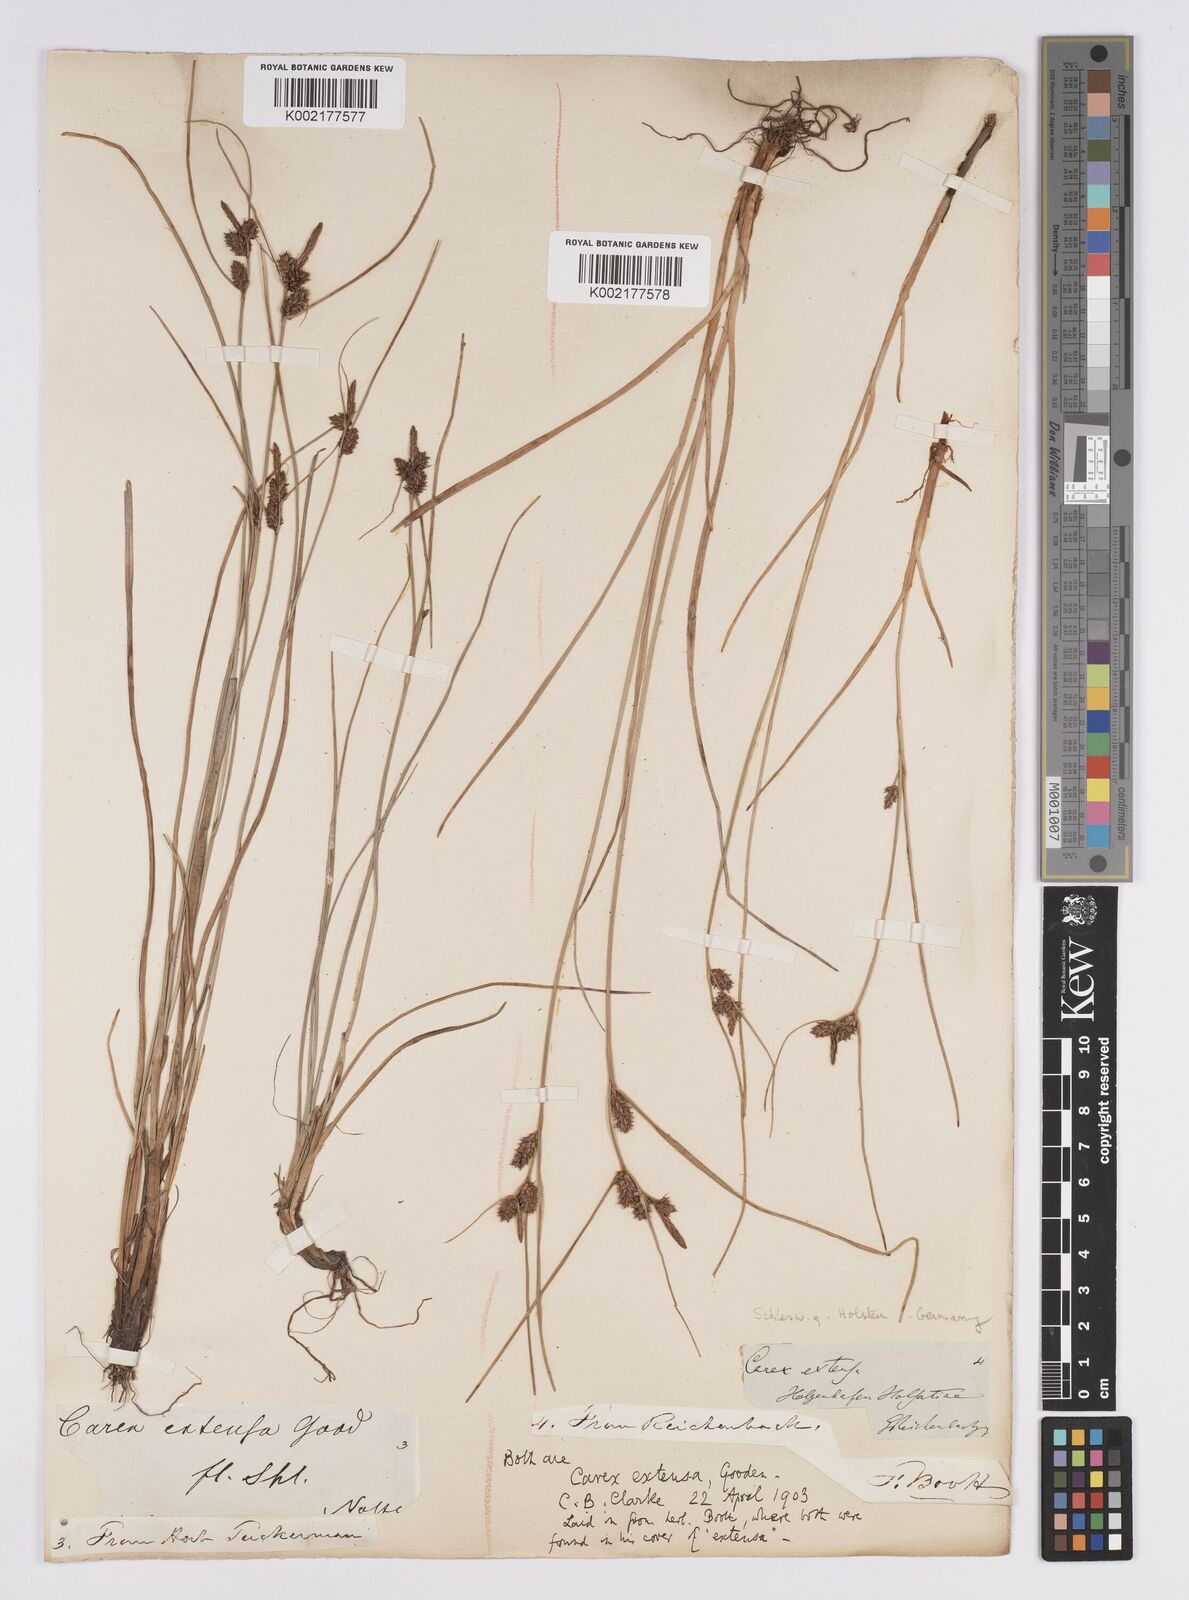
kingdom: Plantae
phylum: Tracheophyta
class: Liliopsida
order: Poales
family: Cyperaceae
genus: Carex
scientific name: Carex extensa
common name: Long-bracted sedge
